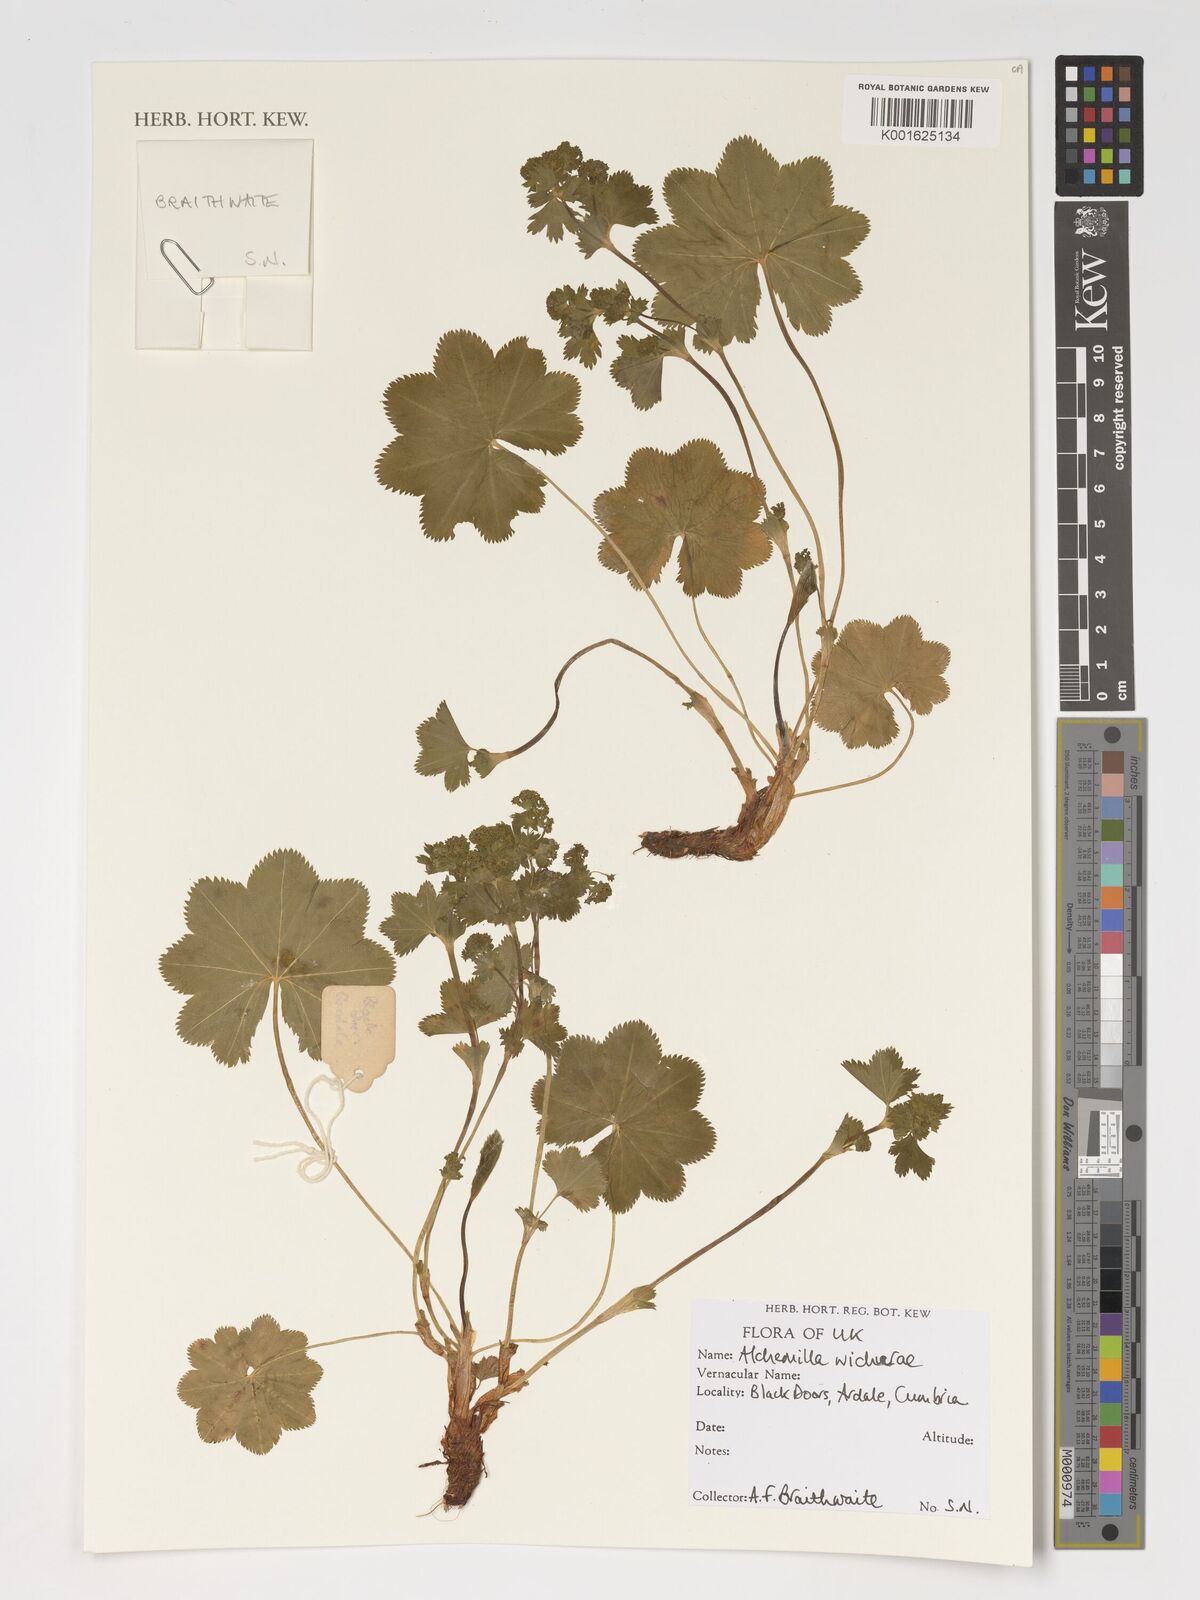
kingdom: Plantae
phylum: Tracheophyta
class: Magnoliopsida
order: Rosales
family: Rosaceae
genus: Alchemilla
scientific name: Alchemilla wichurae
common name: Rock lady's mantle
